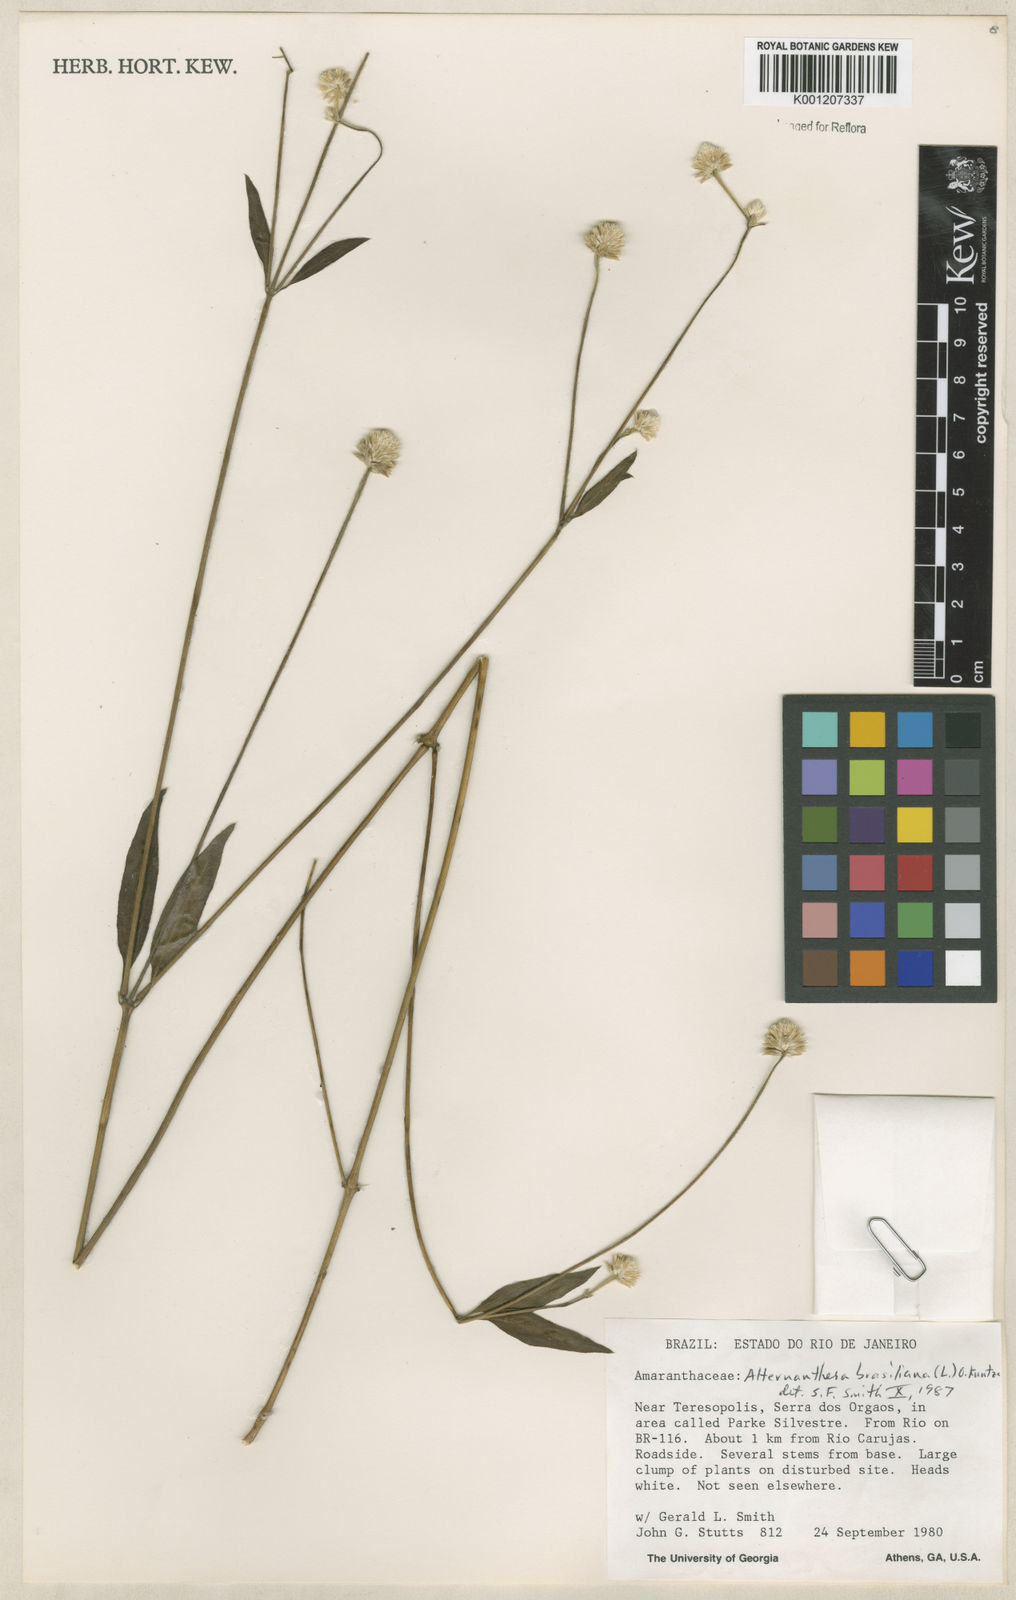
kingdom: Plantae
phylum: Tracheophyta
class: Magnoliopsida
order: Caryophyllales
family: Amaranthaceae
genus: Alternanthera
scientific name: Alternanthera brasiliana
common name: Brazilian joyweed
